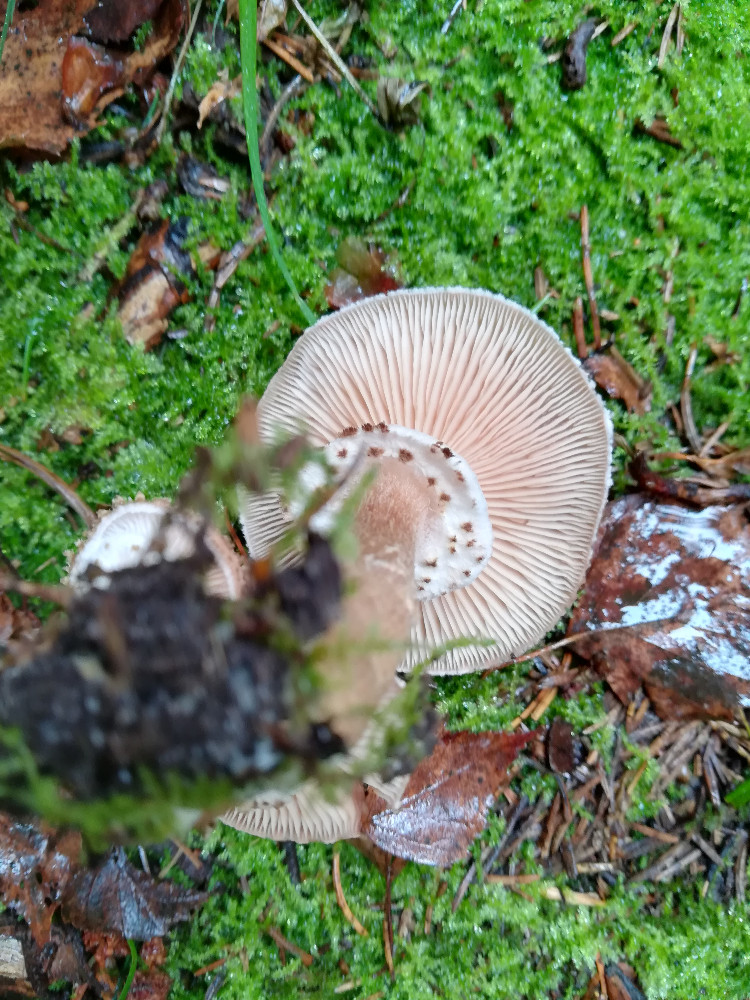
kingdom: Fungi
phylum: Basidiomycota
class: Agaricomycetes
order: Agaricales
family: Physalacriaceae
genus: Armillaria
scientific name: Armillaria ostoyae
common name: mørk honningsvamp
